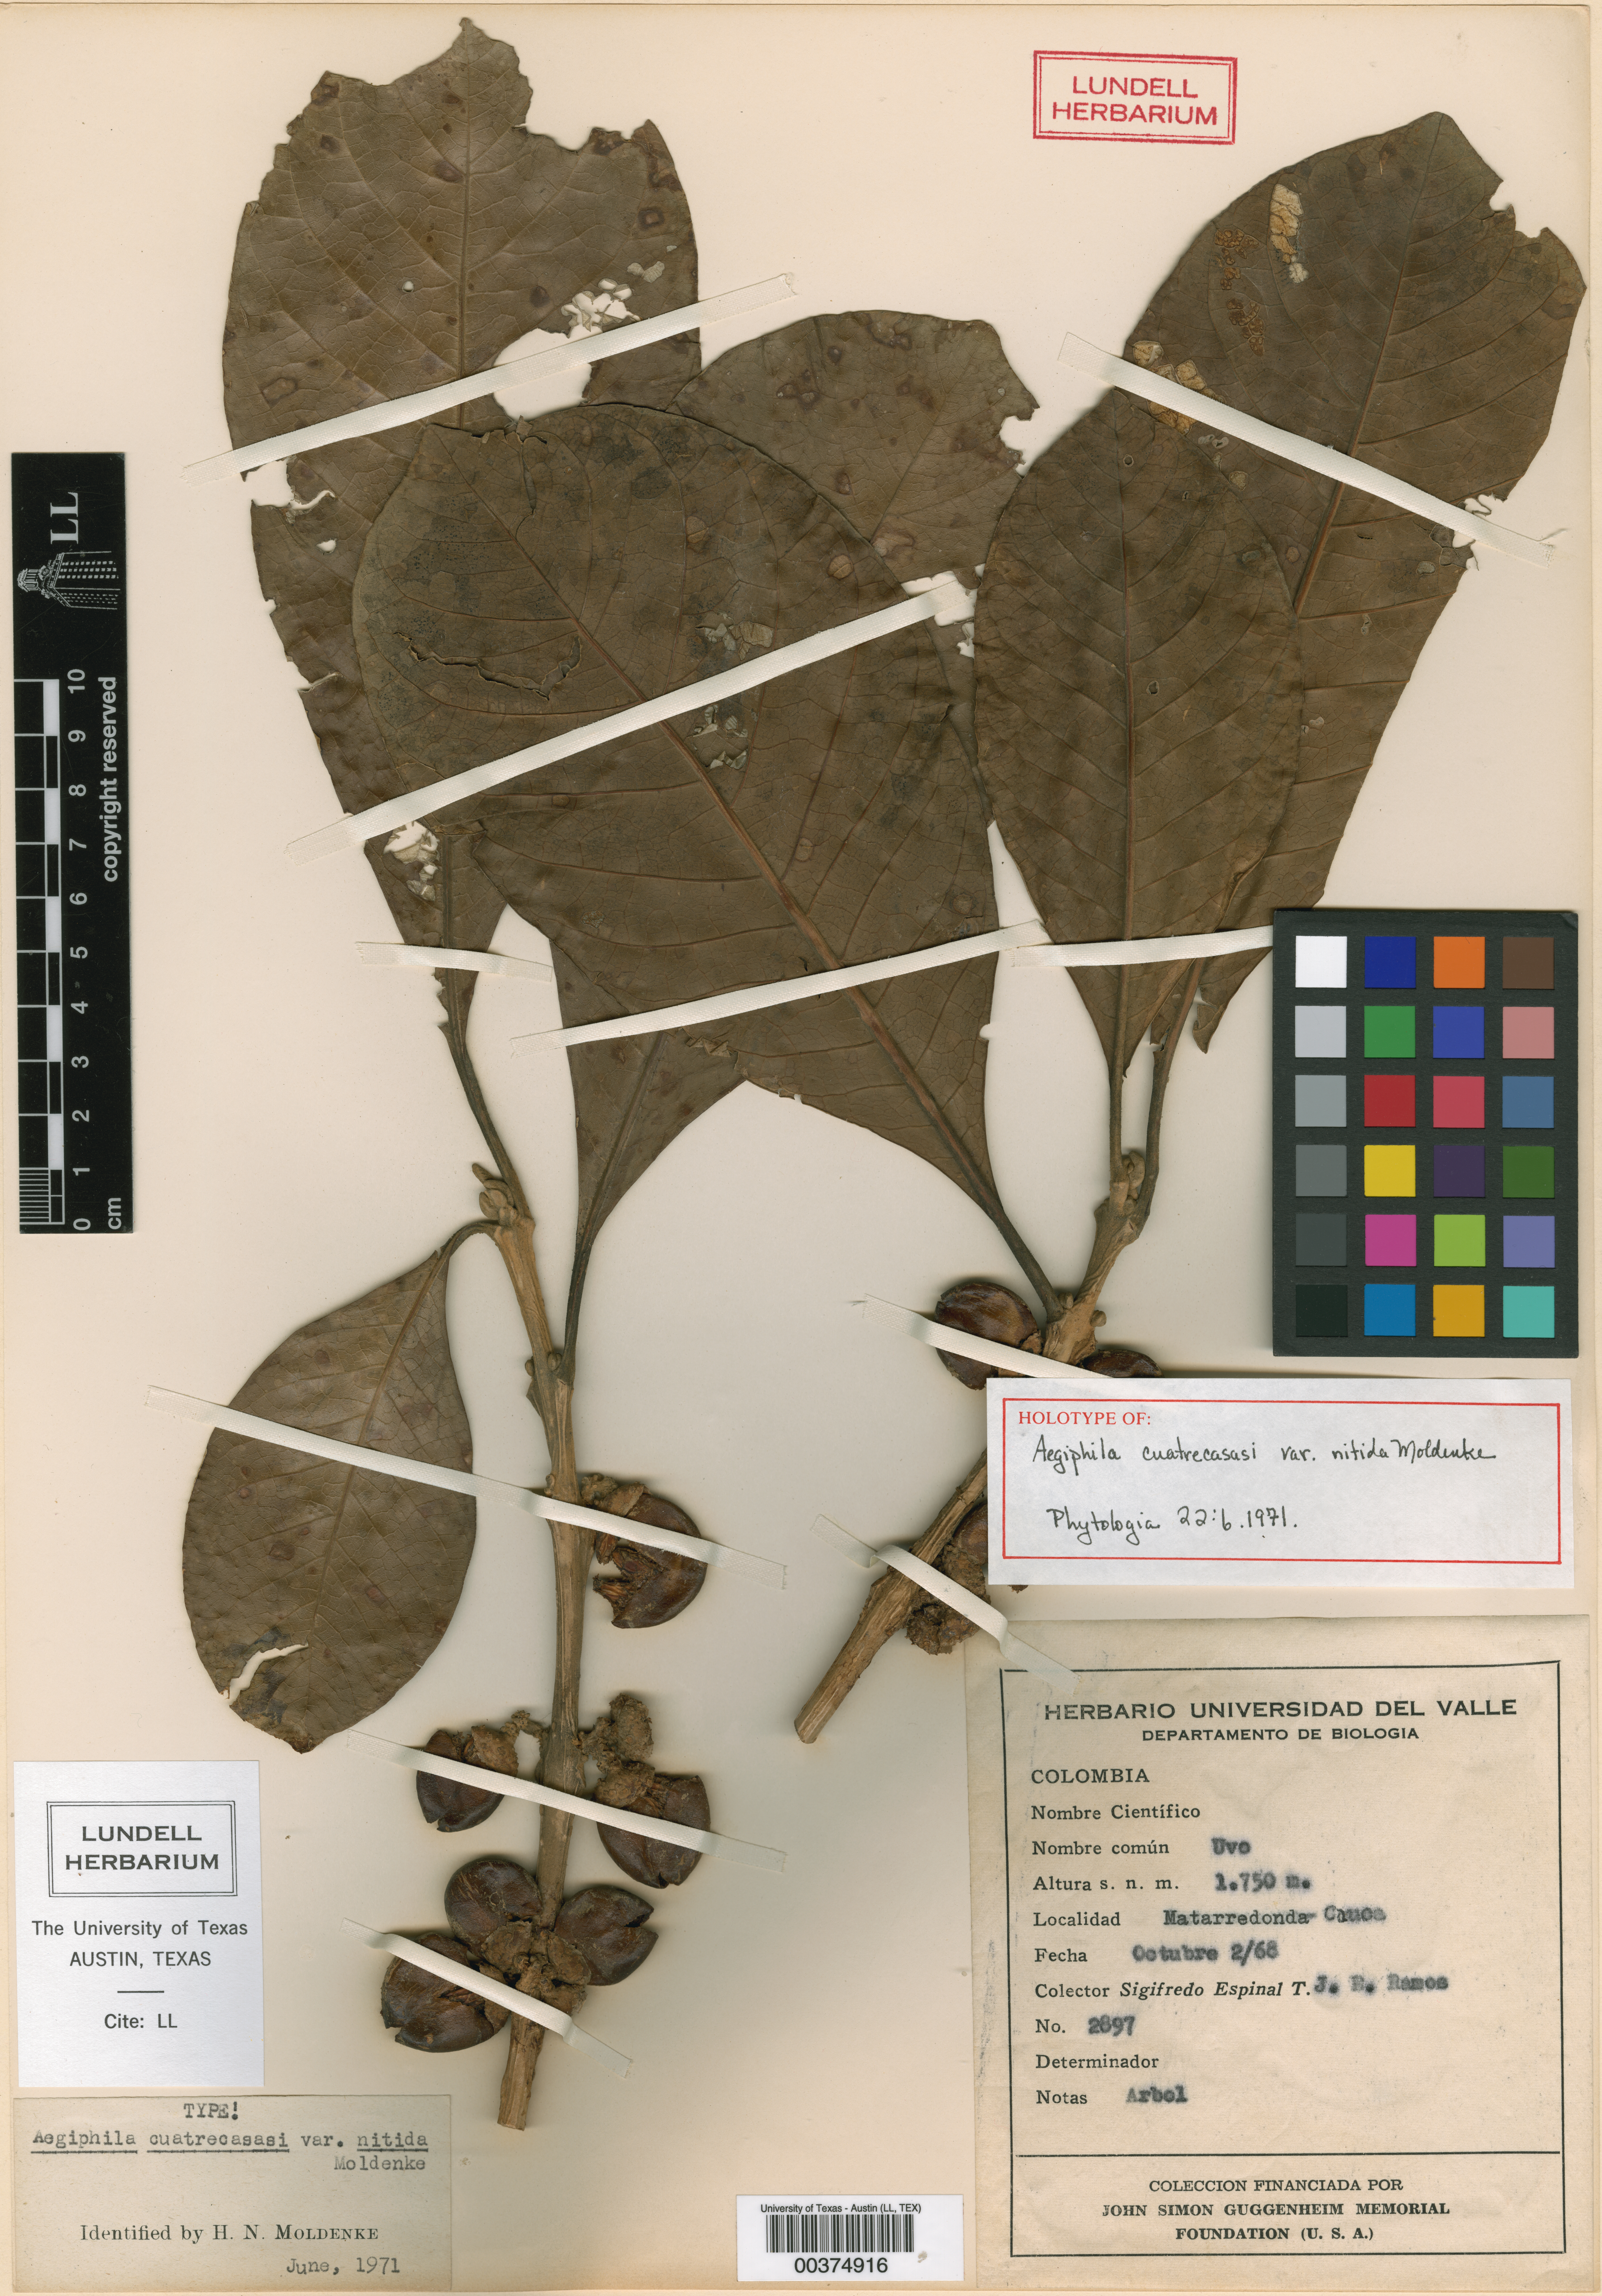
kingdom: Plantae
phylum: Tracheophyta
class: Magnoliopsida
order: Lamiales
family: Lamiaceae
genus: Aegiphila
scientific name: Aegiphila cuatrecasasii
